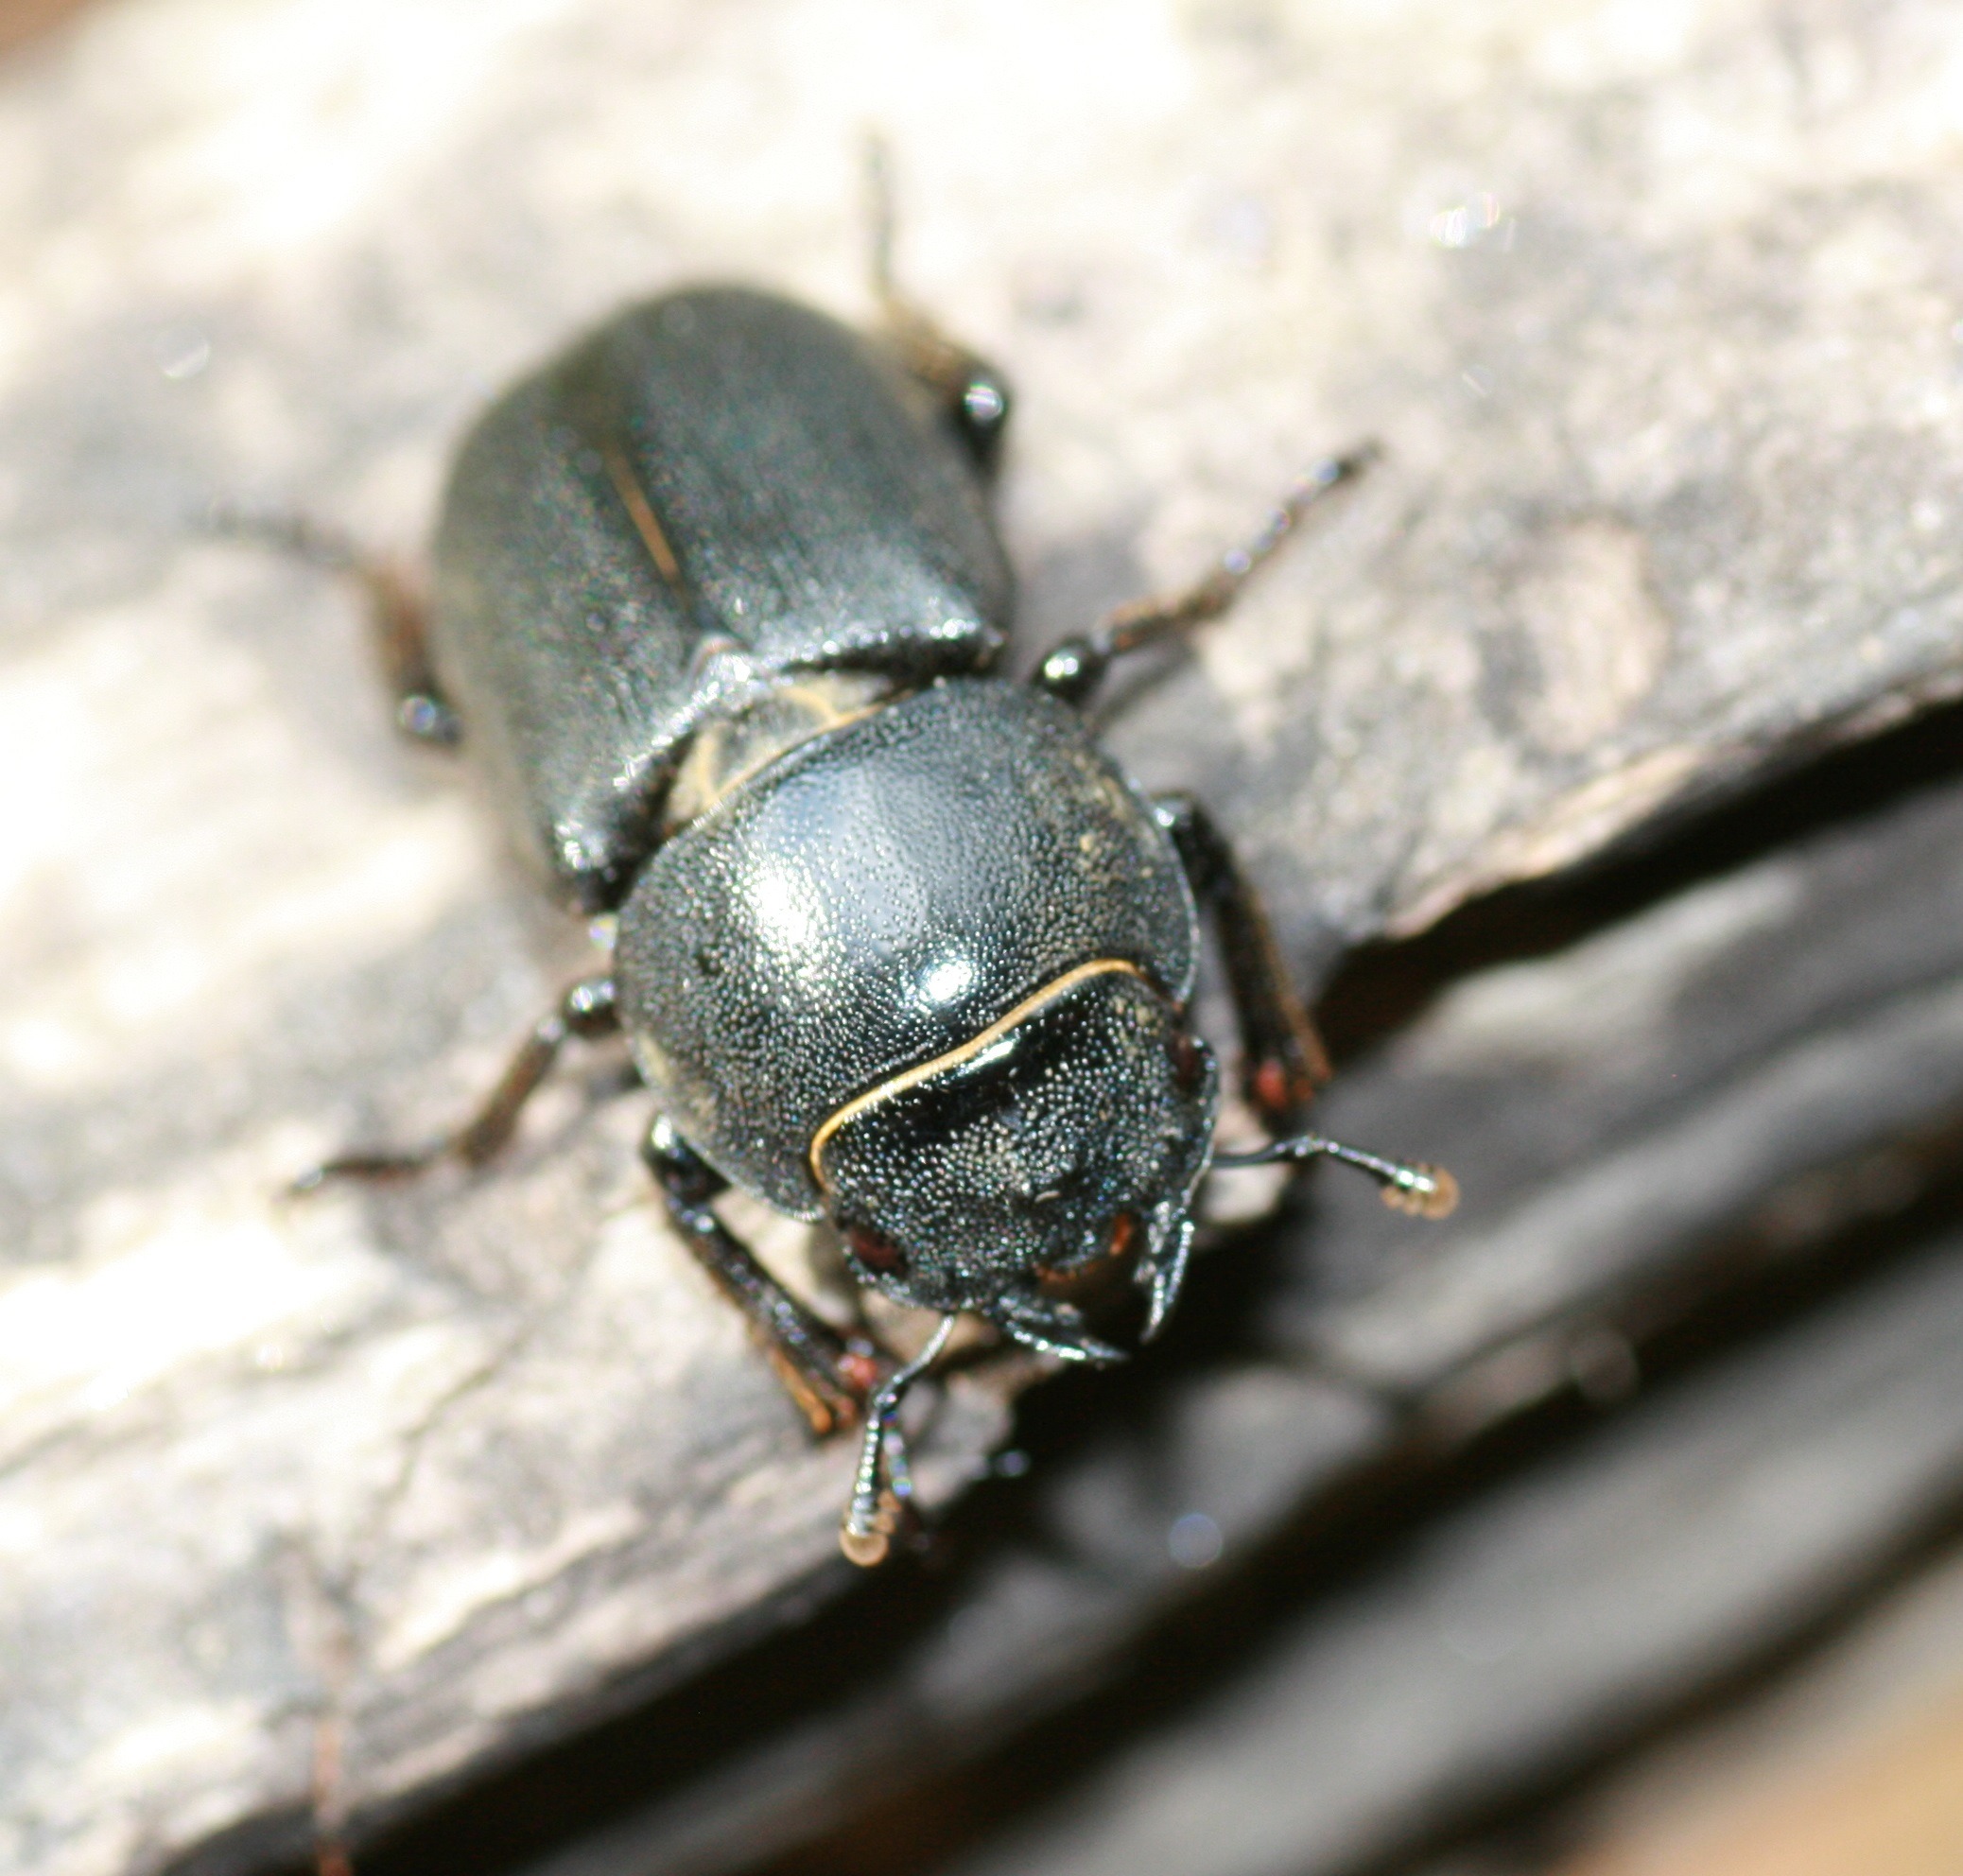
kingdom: Animalia
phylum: Arthropoda
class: Insecta
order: Coleoptera
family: Lucanidae
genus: Dorcus
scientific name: Dorcus parallelipipedus
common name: Bøghjort
